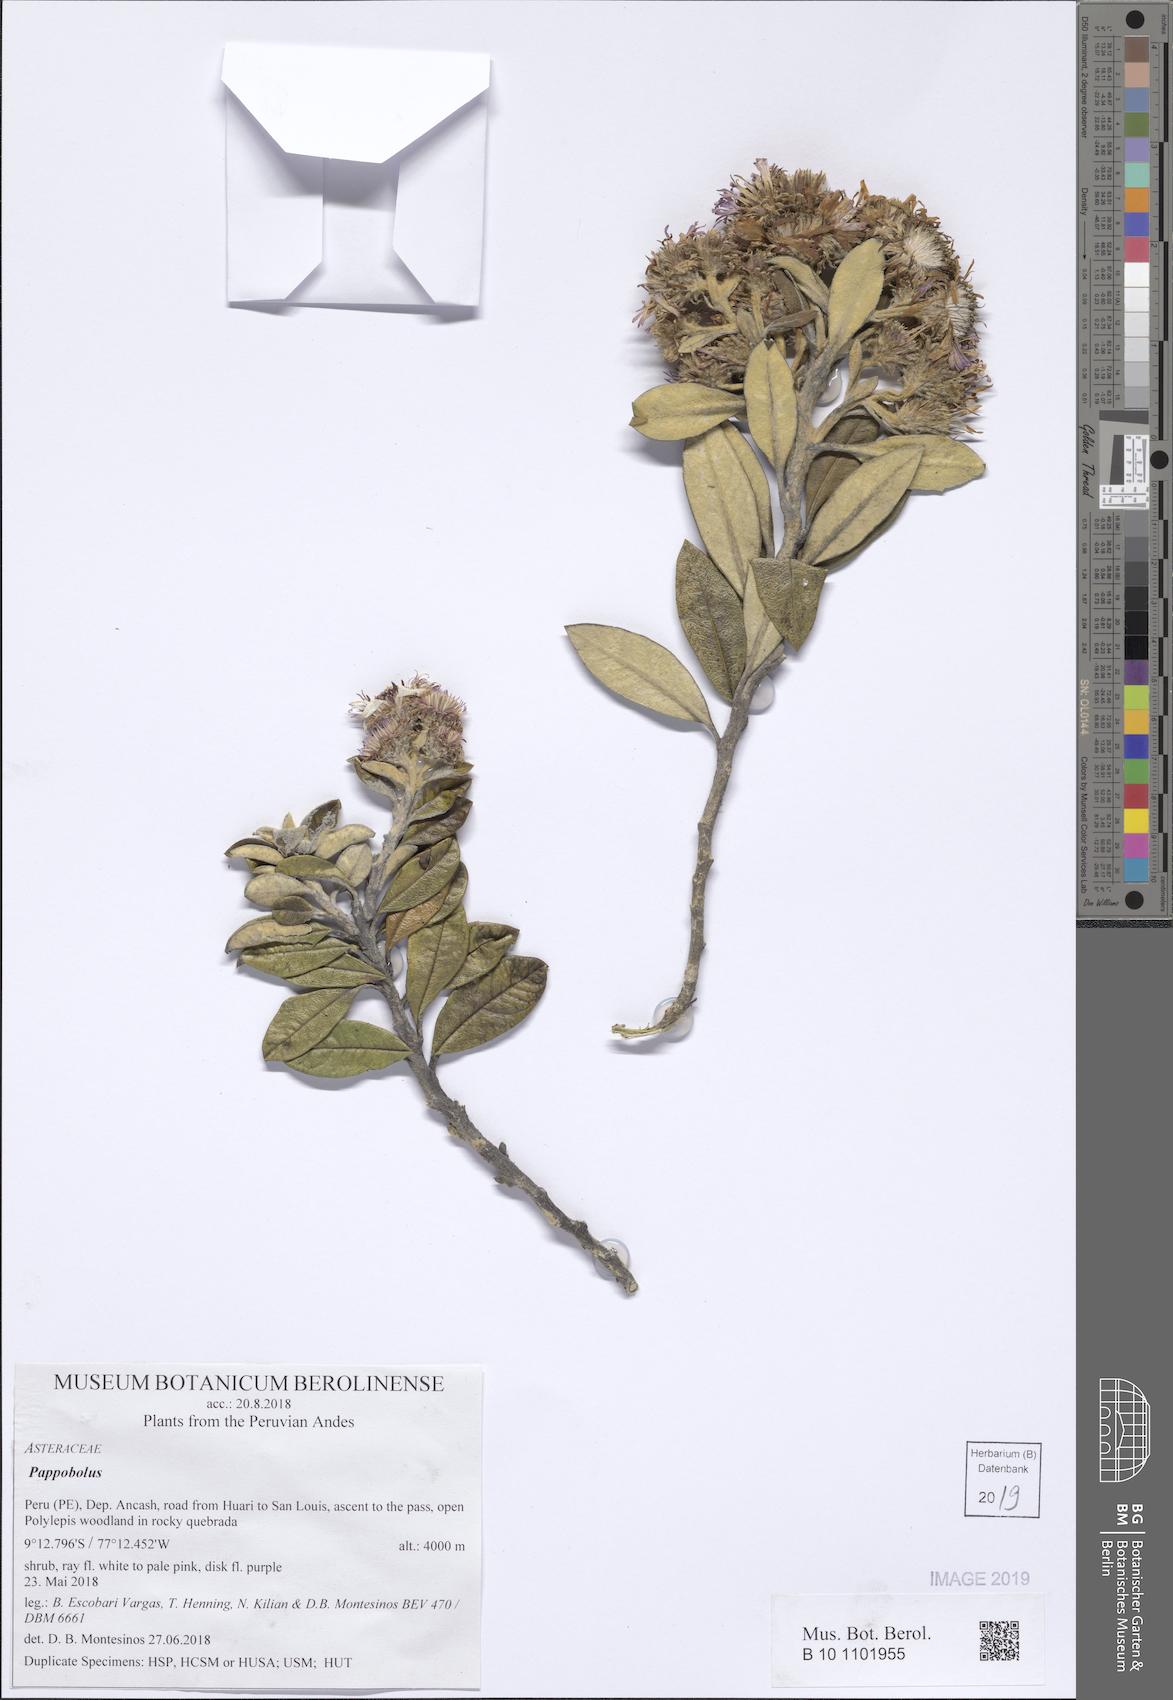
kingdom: Plantae
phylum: Tracheophyta
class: Magnoliopsida
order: Asterales
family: Asteraceae
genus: Pappobolus
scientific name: Pappobolus
